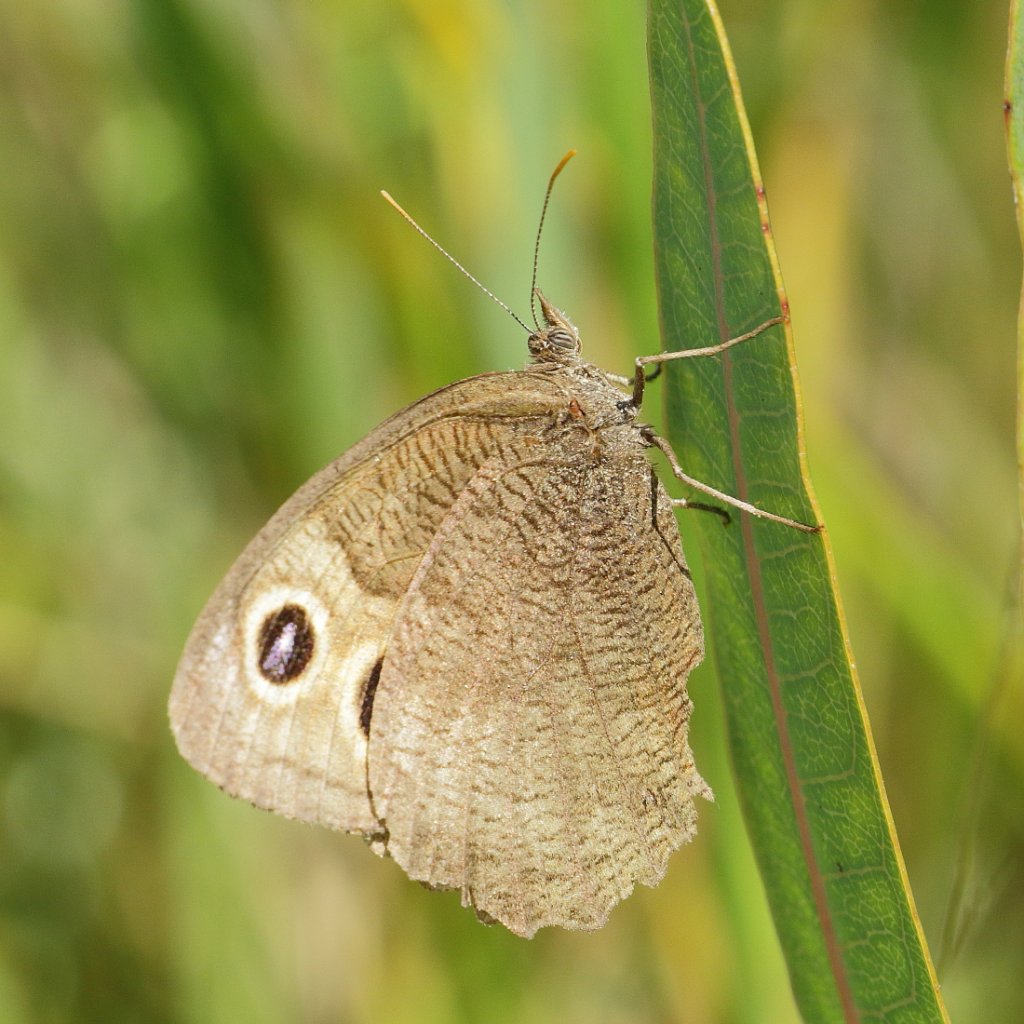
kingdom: Animalia
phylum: Arthropoda
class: Insecta
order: Lepidoptera
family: Nymphalidae
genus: Cercyonis
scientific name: Cercyonis pegala
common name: Common Wood-Nymph
